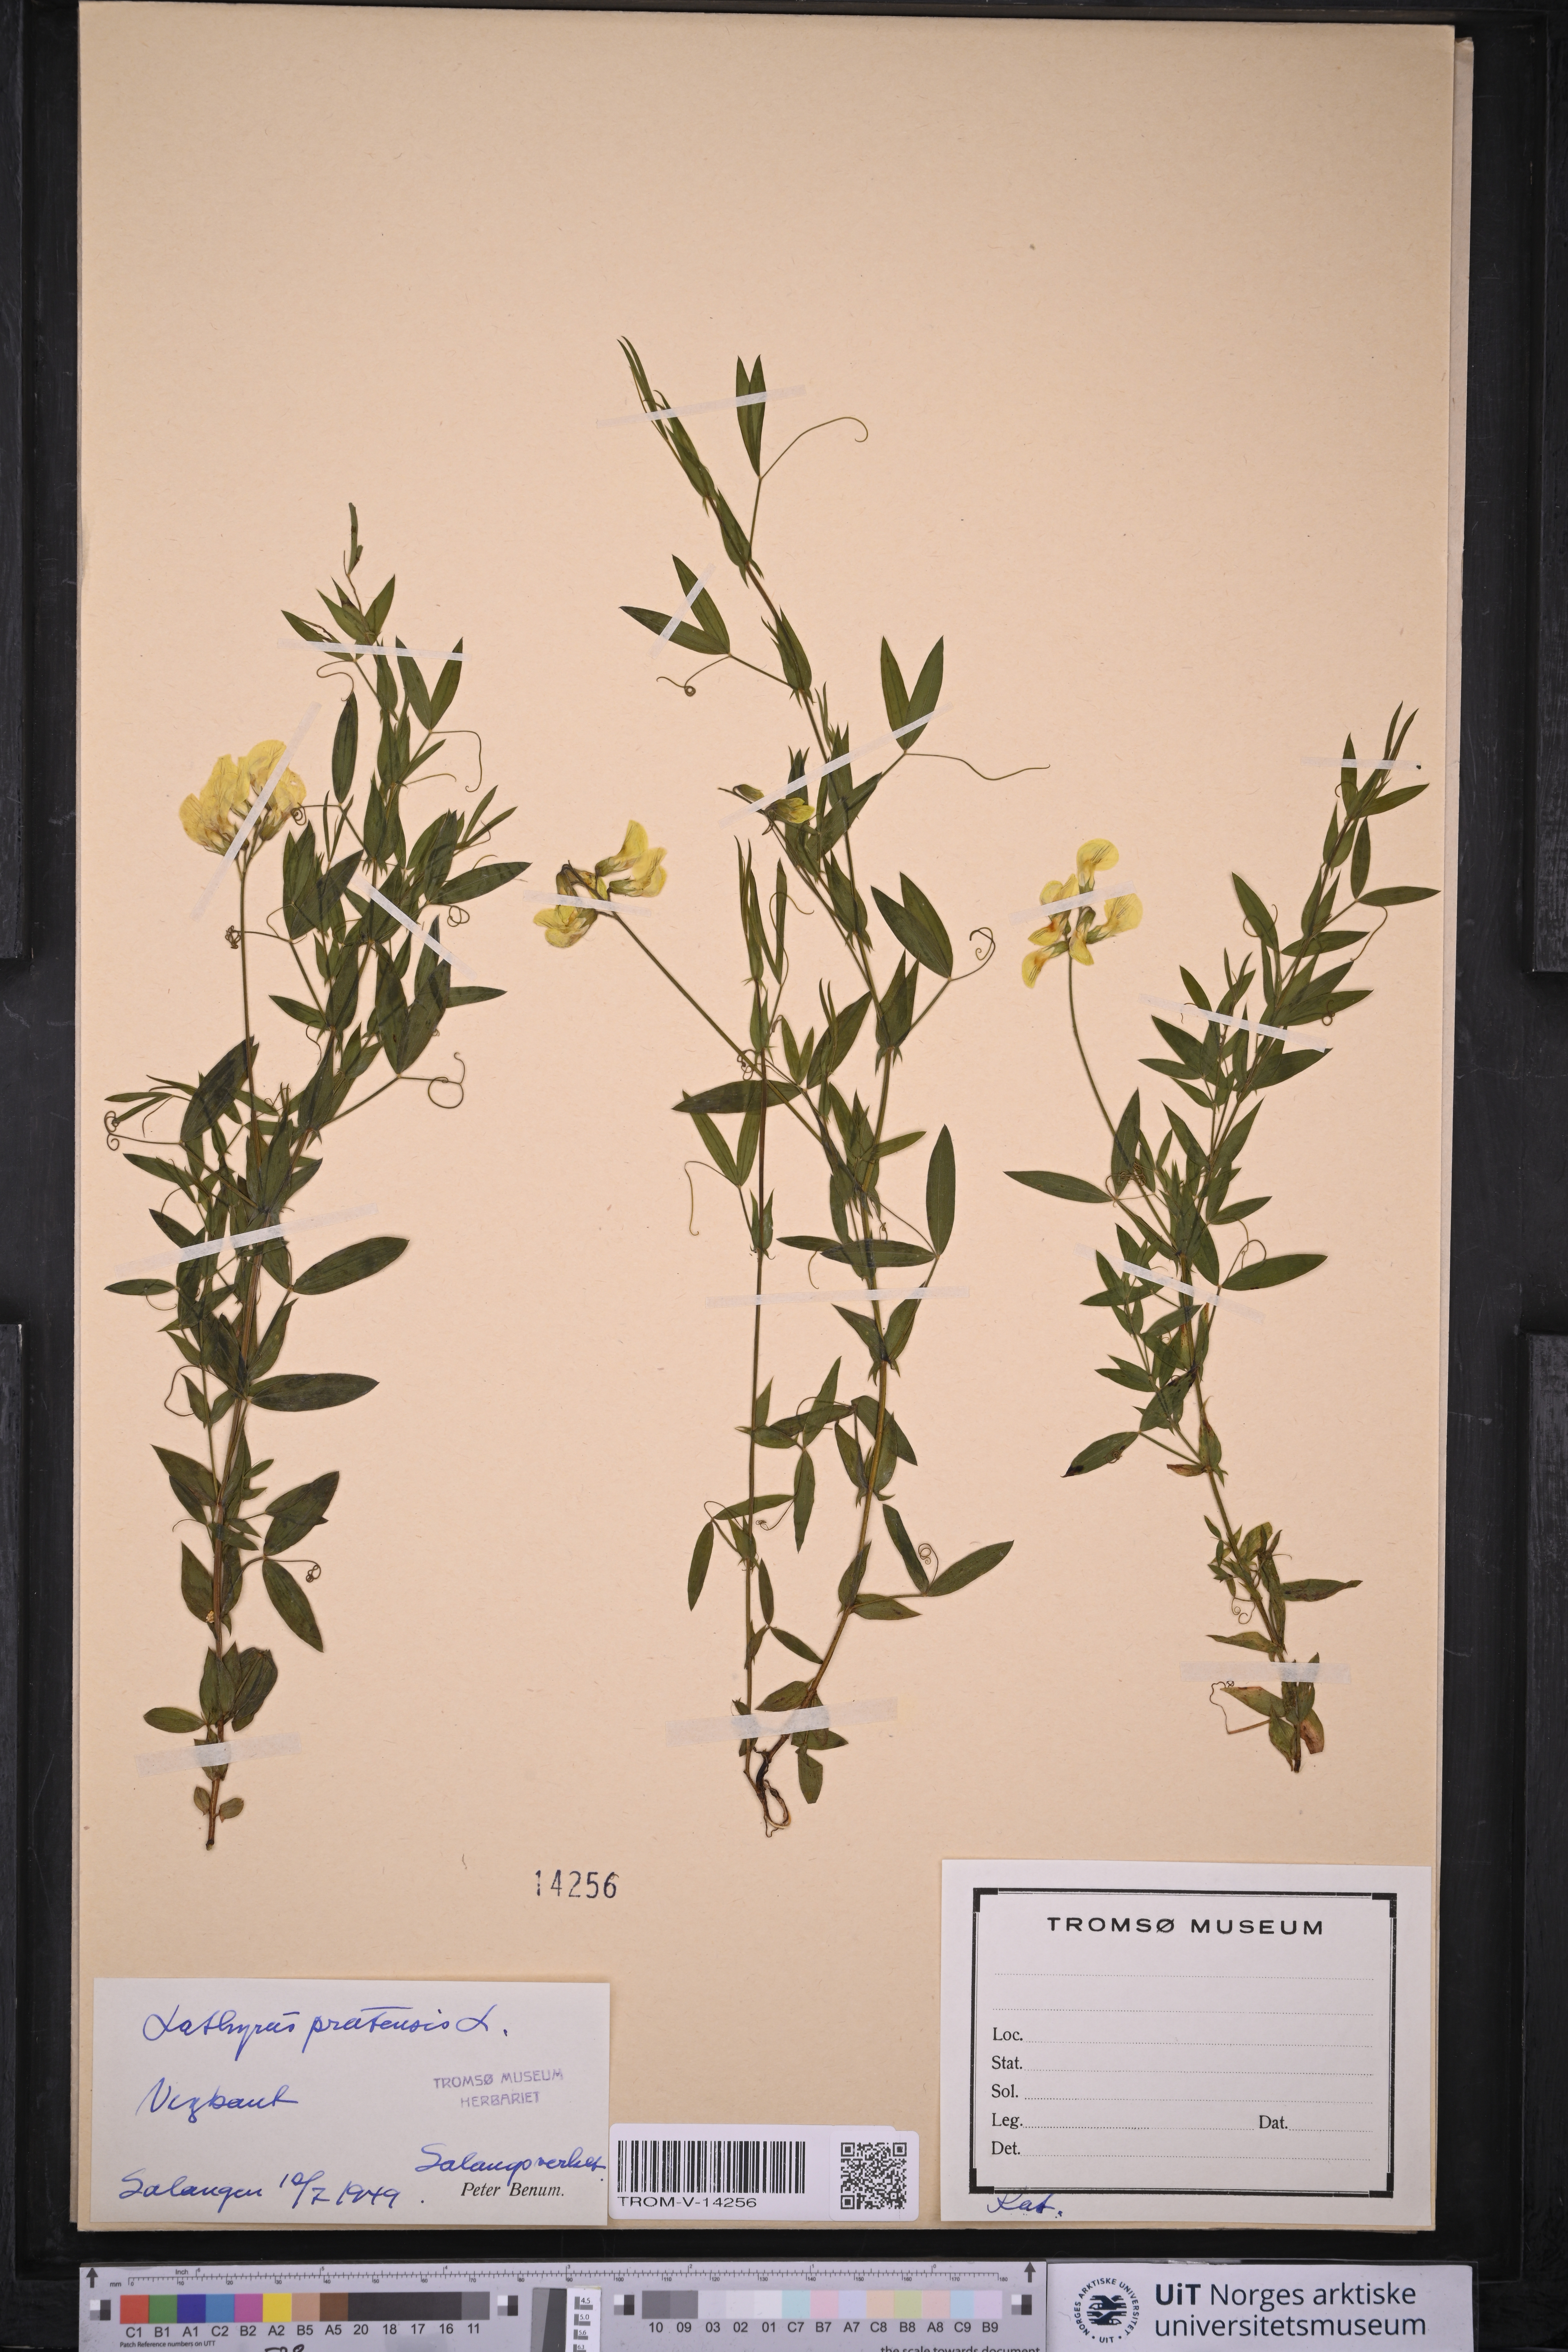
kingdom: Plantae
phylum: Tracheophyta
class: Magnoliopsida
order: Fabales
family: Fabaceae
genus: Lathyrus
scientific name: Lathyrus pratensis
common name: Meadow vetchling
